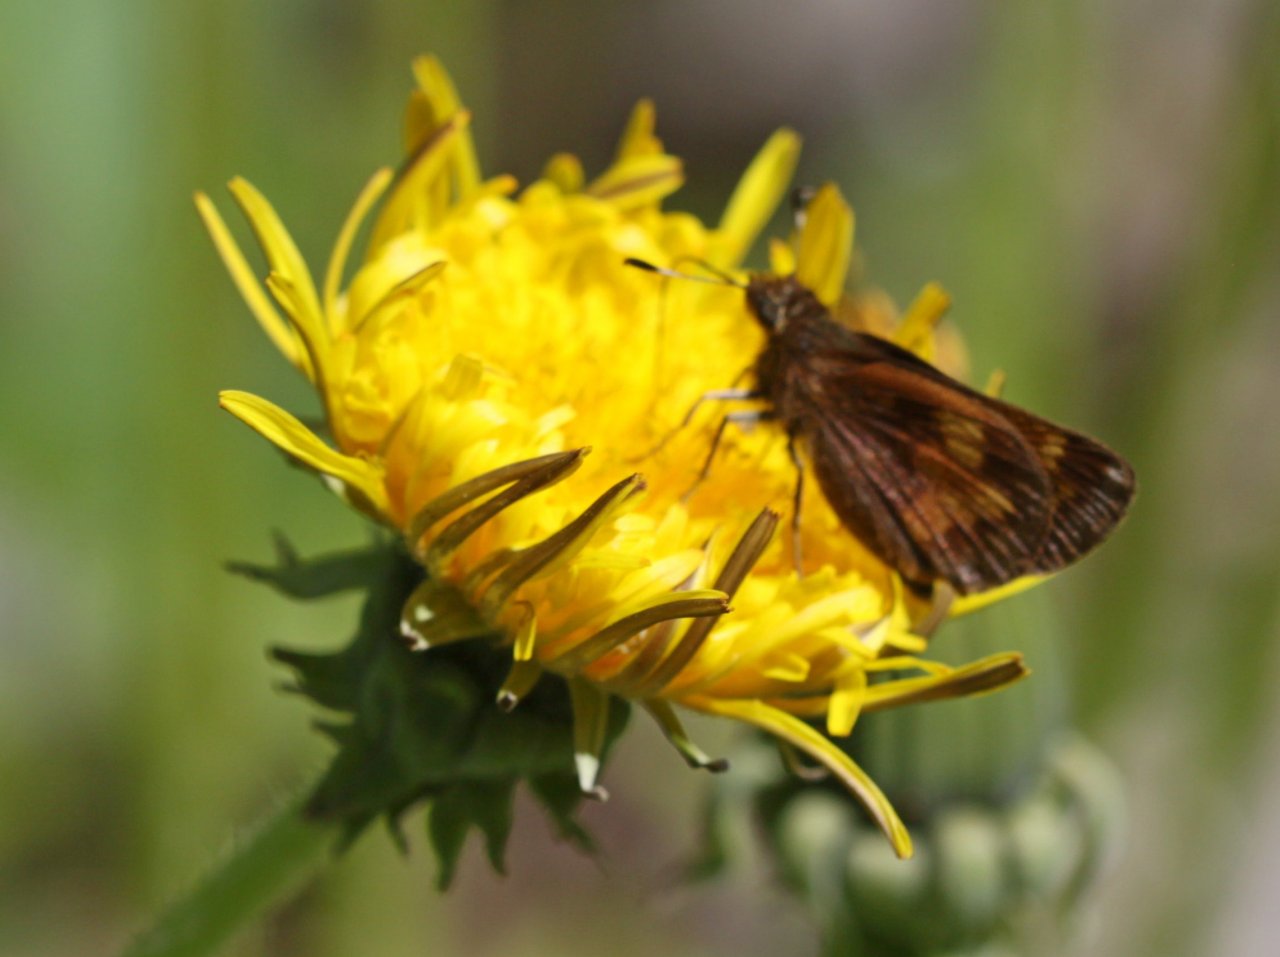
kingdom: Animalia
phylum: Arthropoda
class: Insecta
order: Lepidoptera
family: Hesperiidae
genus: Lon
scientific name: Lon hobomok
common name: Hobomok Skipper
